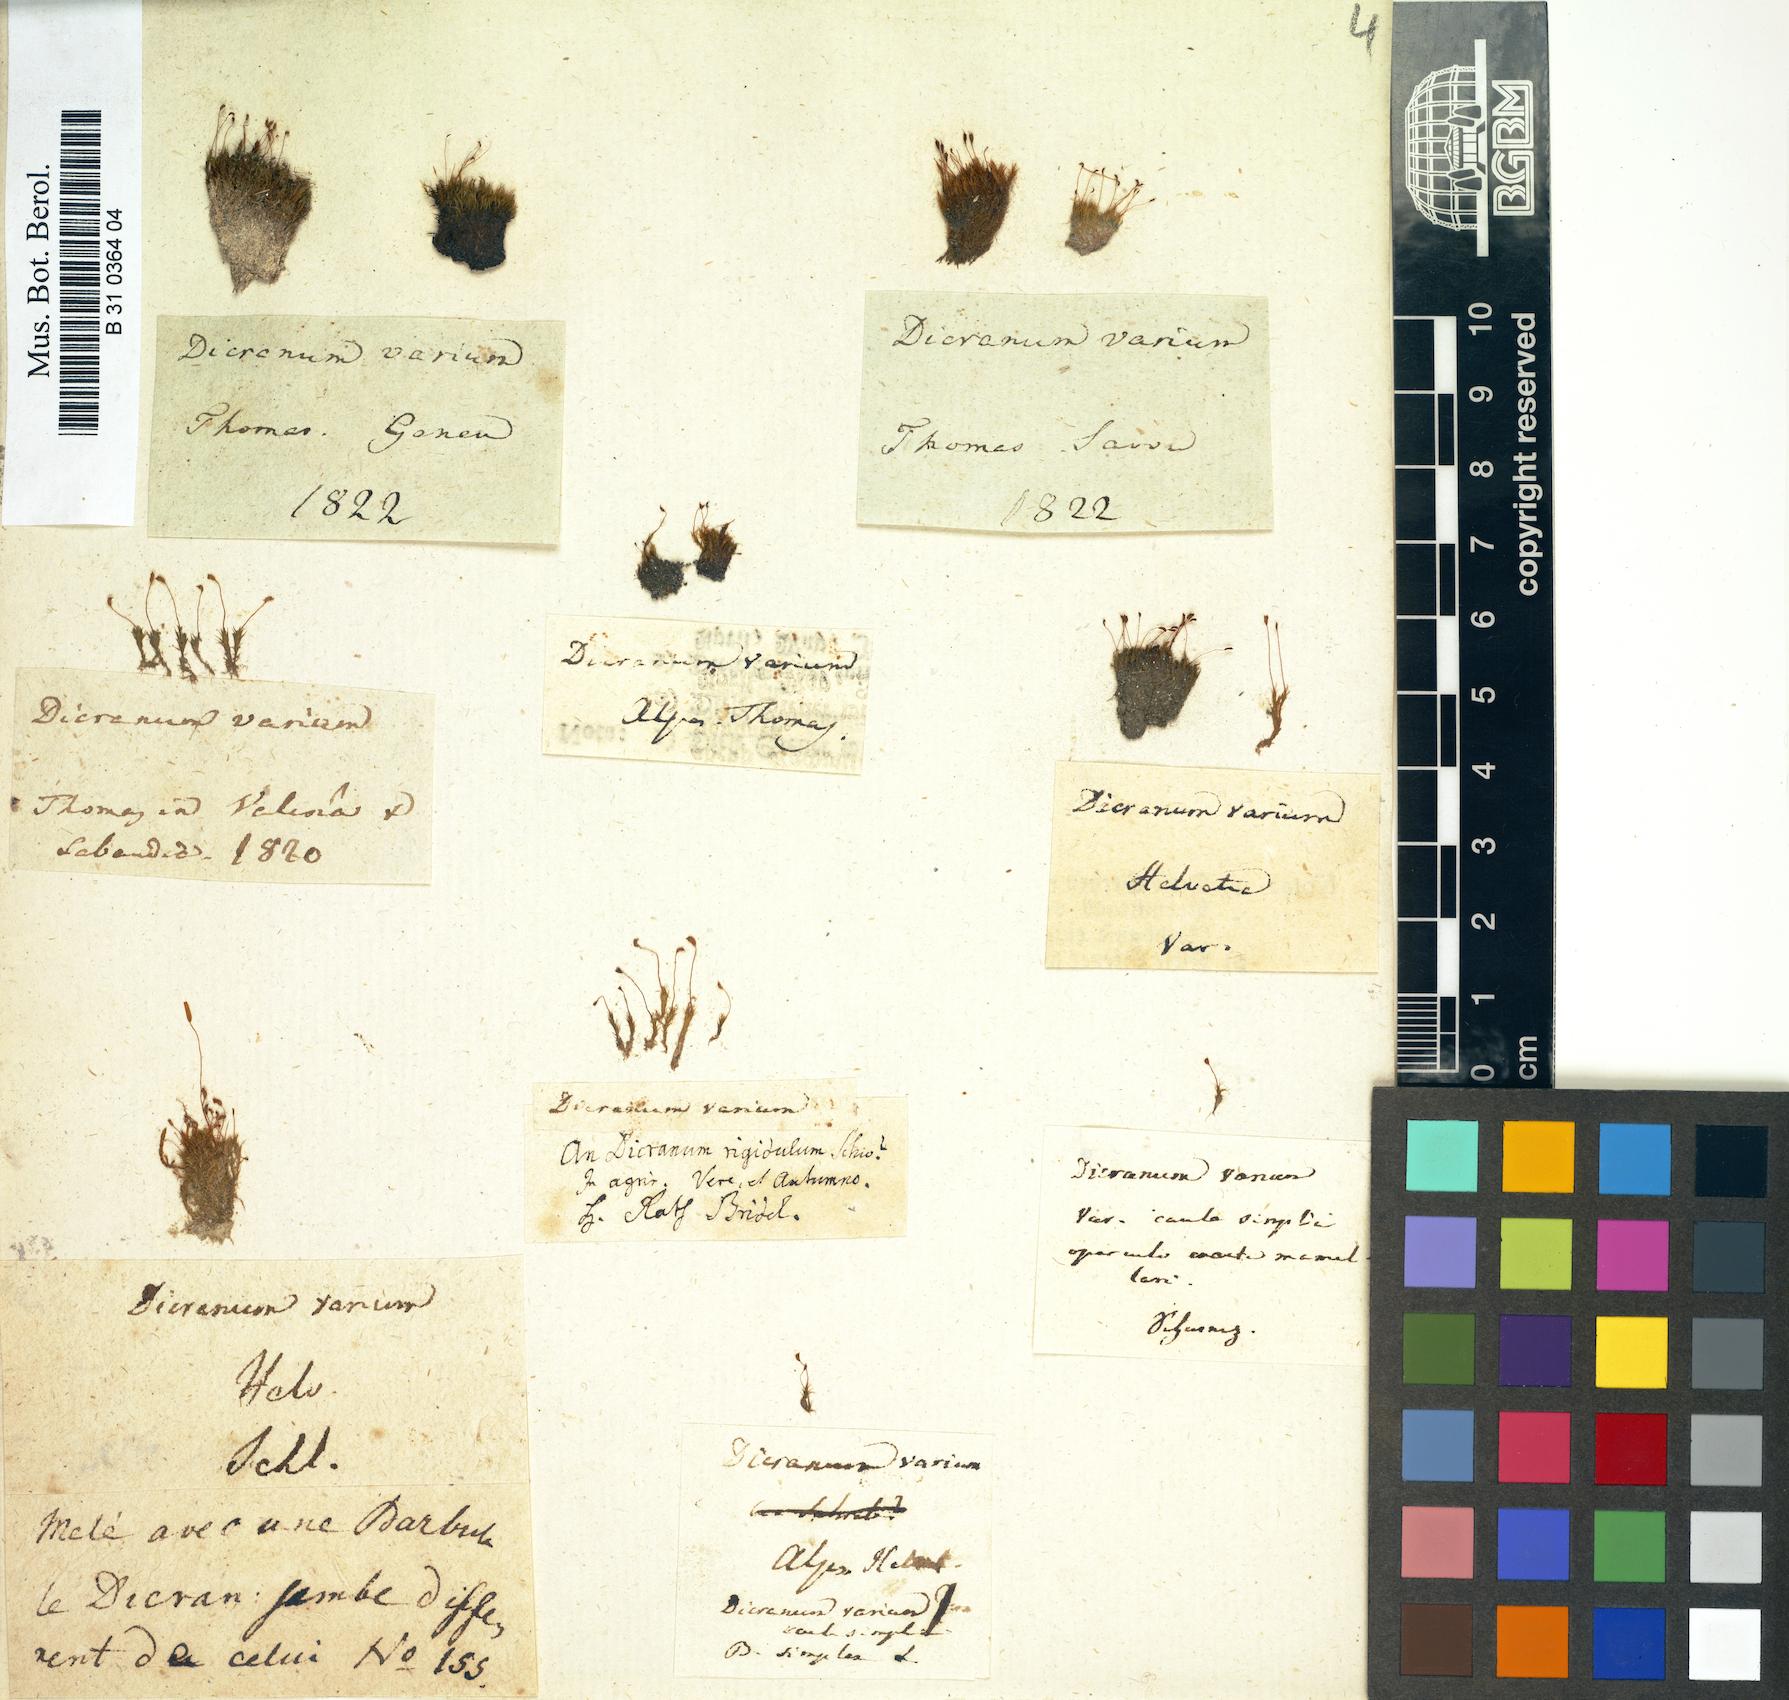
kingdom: Plantae
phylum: Bryophyta
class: Bryopsida
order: Dicranales
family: Dicranellaceae
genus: Dicranella
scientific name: Dicranella varia
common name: Variable forklet moss
